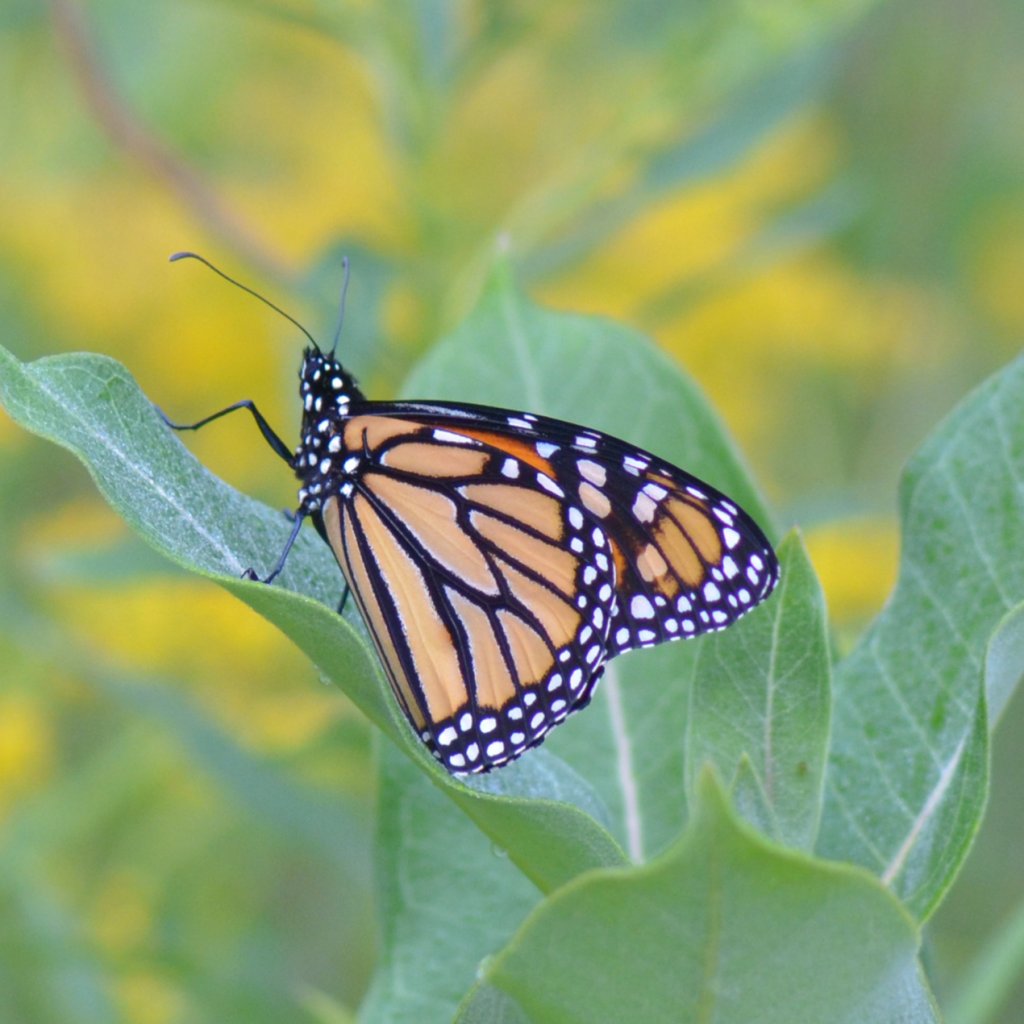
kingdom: Animalia
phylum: Arthropoda
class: Insecta
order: Lepidoptera
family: Nymphalidae
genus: Danaus
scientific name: Danaus plexippus
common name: Monarch
